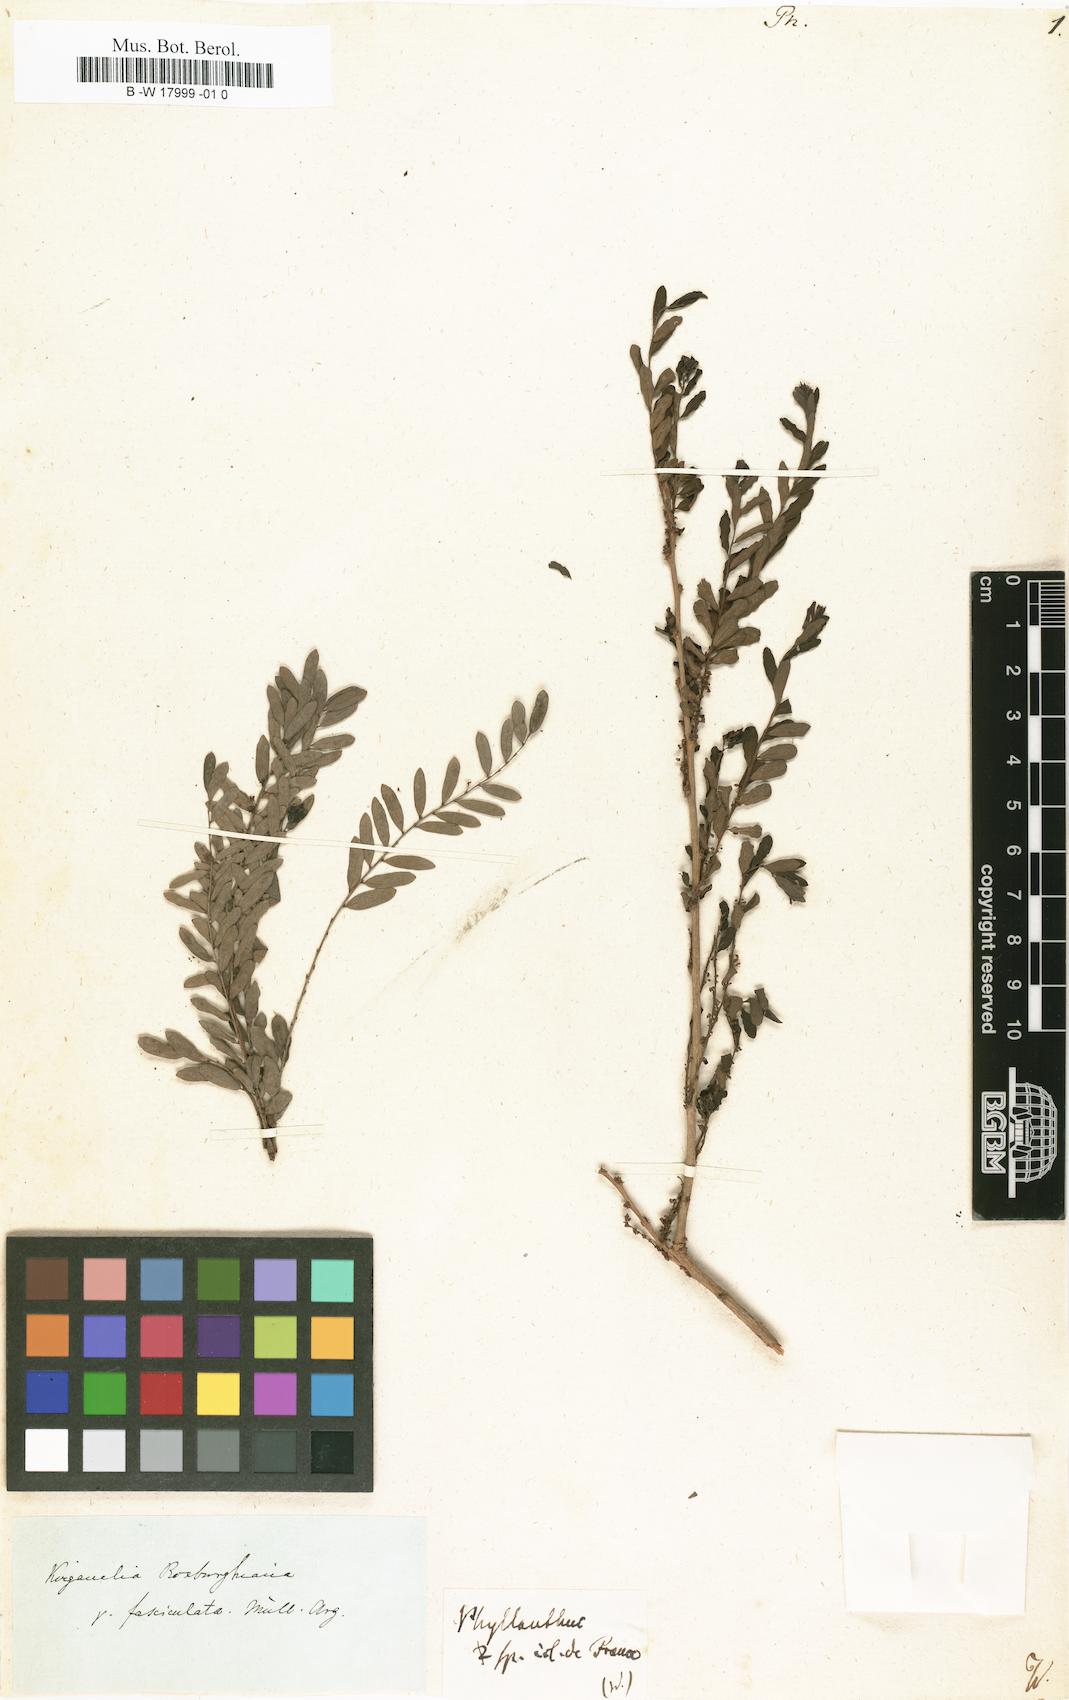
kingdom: Plantae
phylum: Tracheophyta
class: Magnoliopsida
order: Malpighiales
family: Phyllanthaceae
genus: Phyllanthus
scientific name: Phyllanthus
